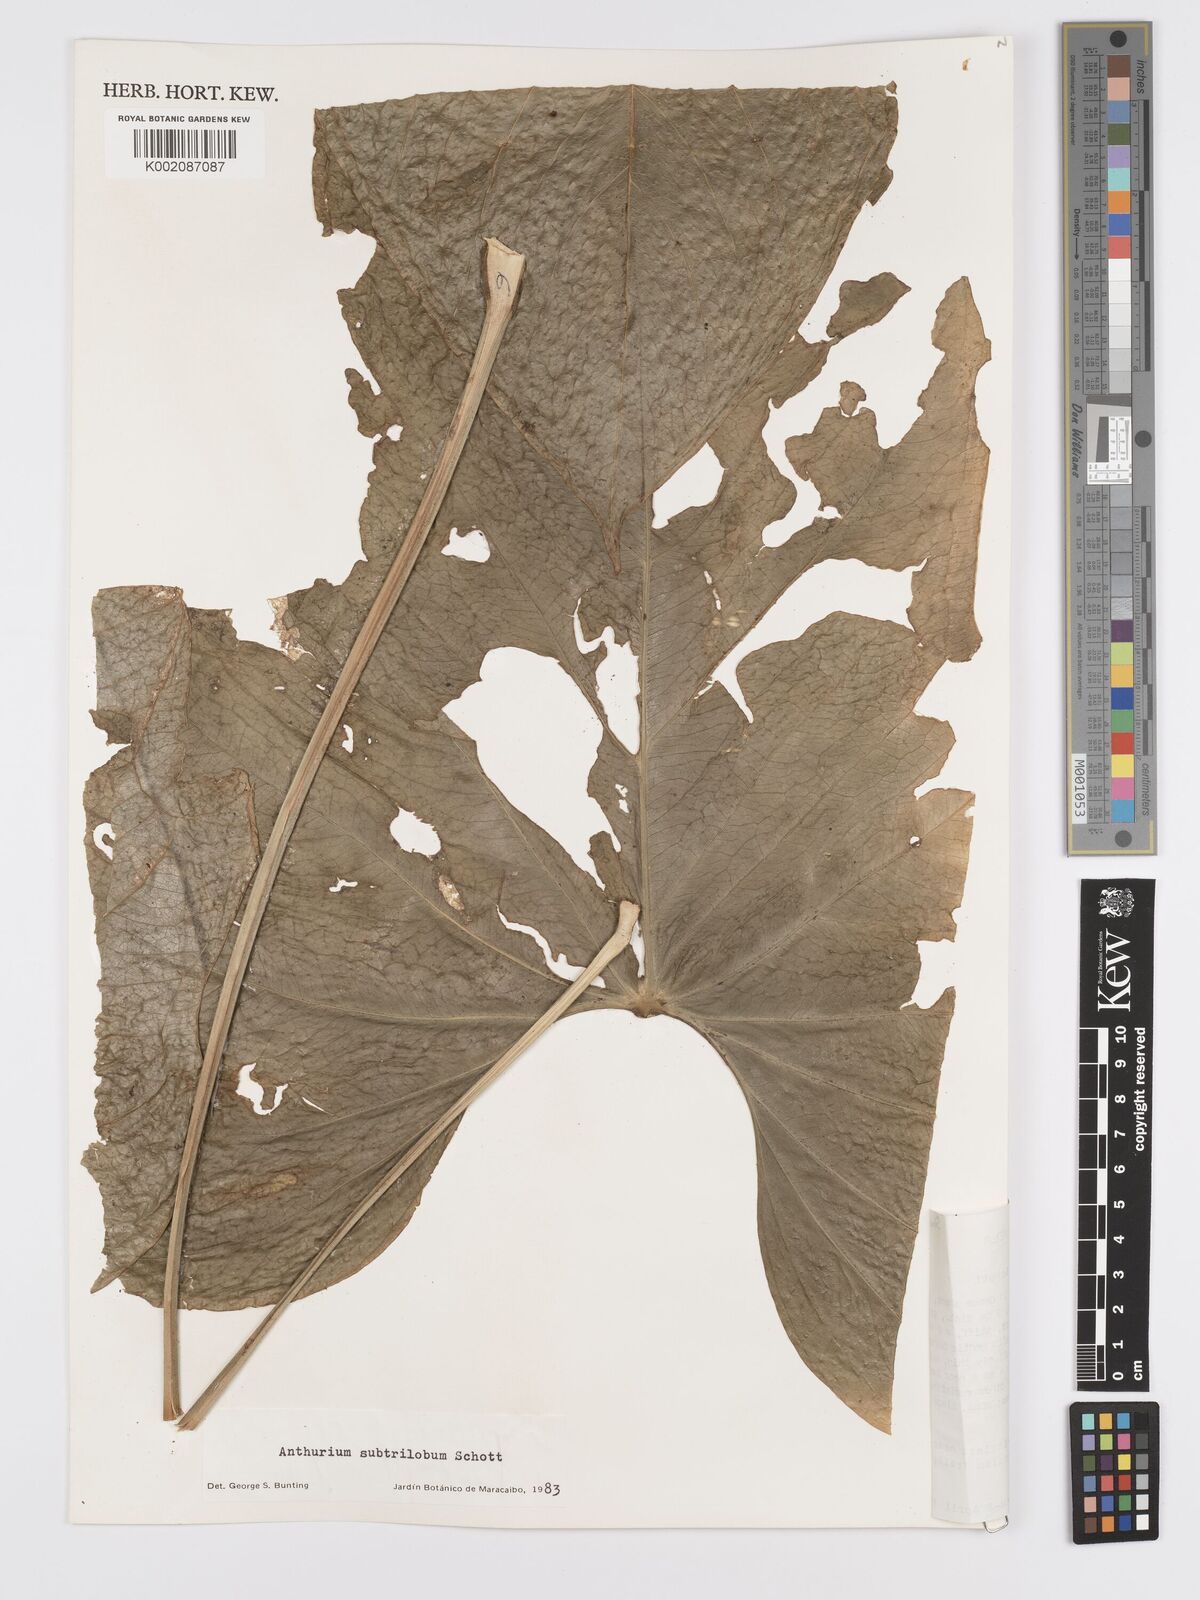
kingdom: Plantae
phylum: Tracheophyta
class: Liliopsida
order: Alismatales
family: Araceae
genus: Anthurium
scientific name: Anthurium subtrilobum
